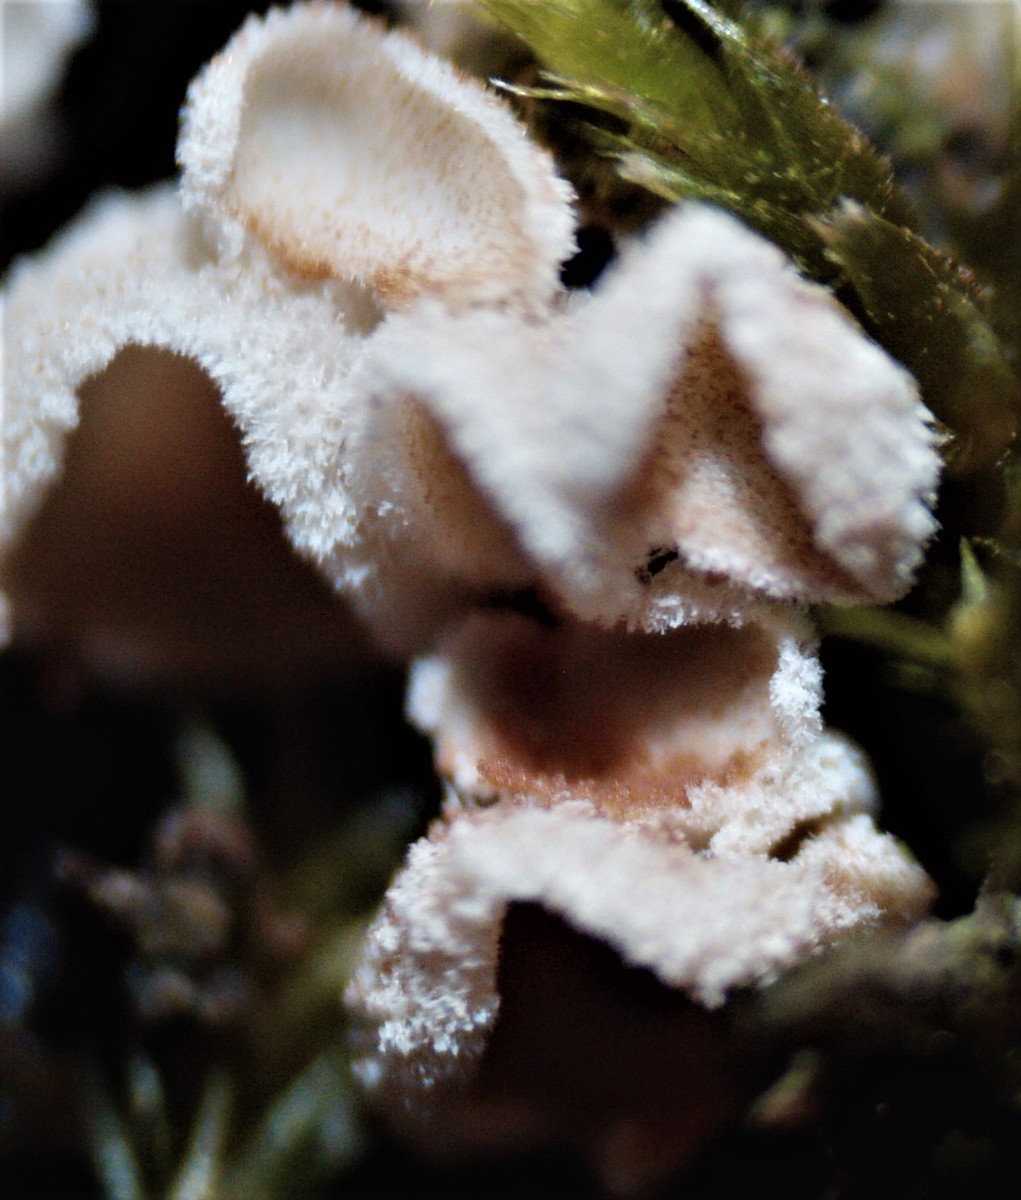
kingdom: Fungi
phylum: Basidiomycota
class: Agaricomycetes
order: Agaricales
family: Chromocyphellaceae
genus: Chromocyphella
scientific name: Chromocyphella muscicola
